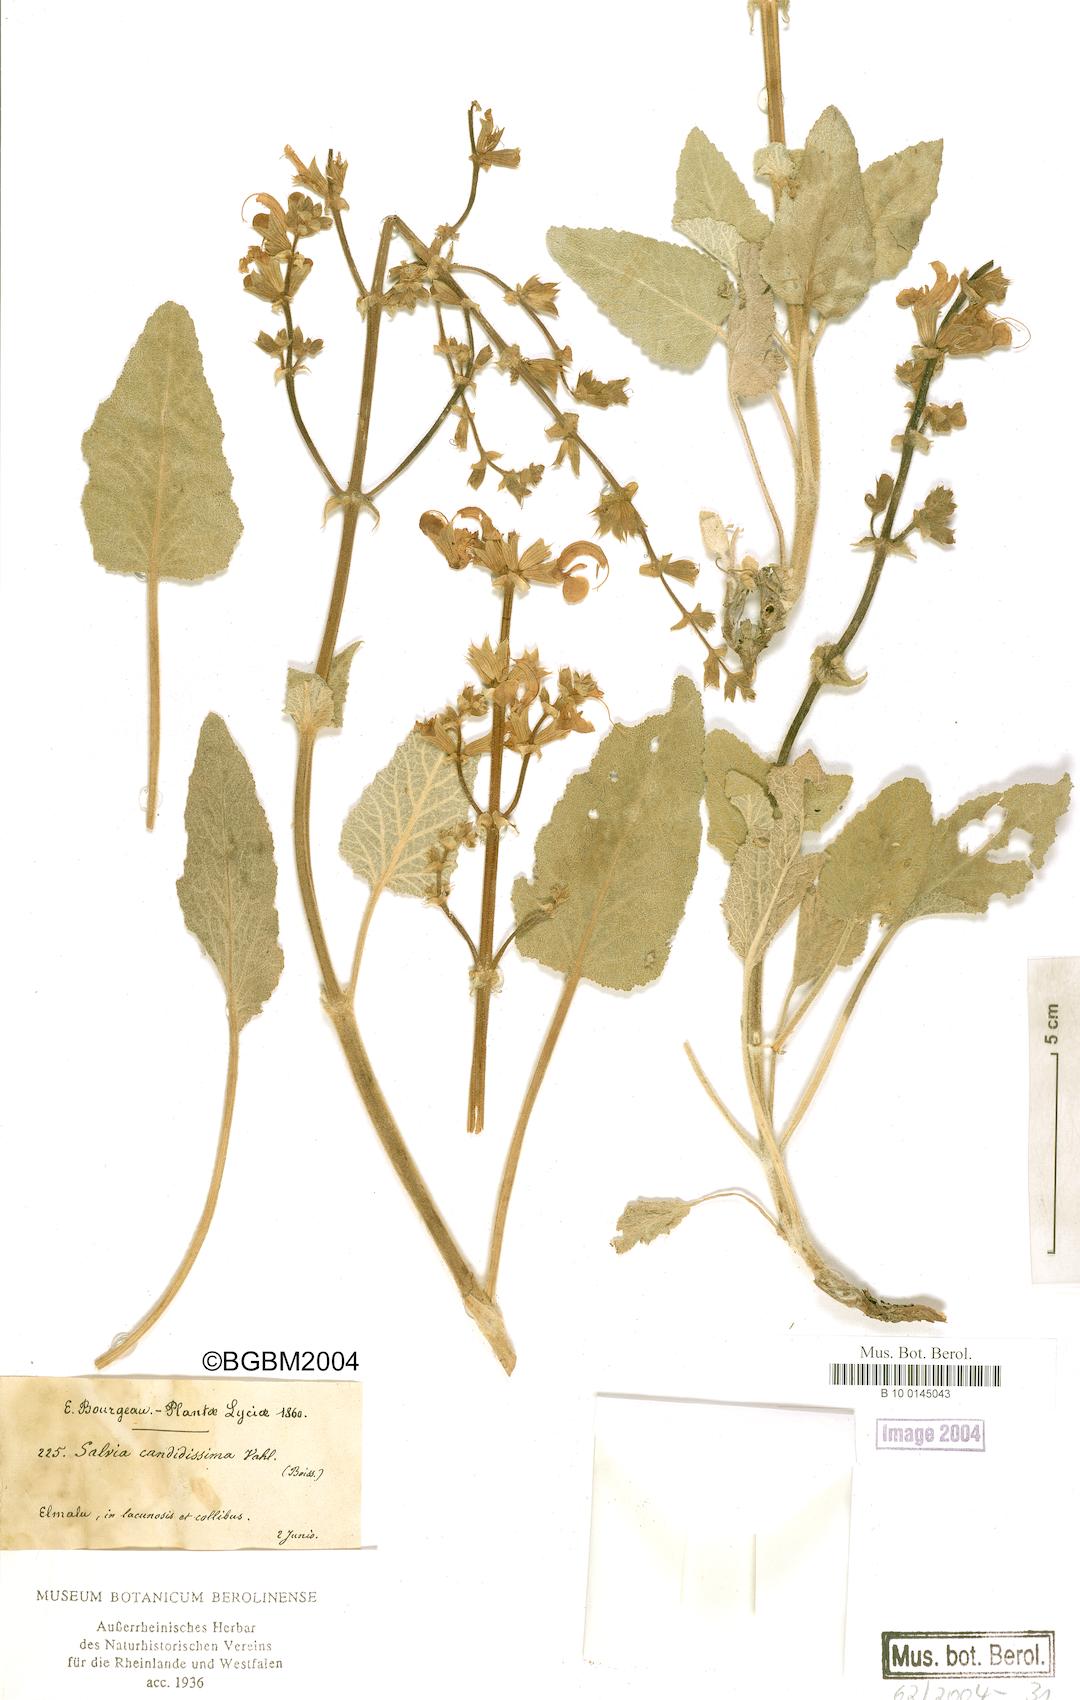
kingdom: Plantae
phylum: Tracheophyta
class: Magnoliopsida
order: Lamiales
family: Lamiaceae
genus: Salvia
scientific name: Salvia candidissima
